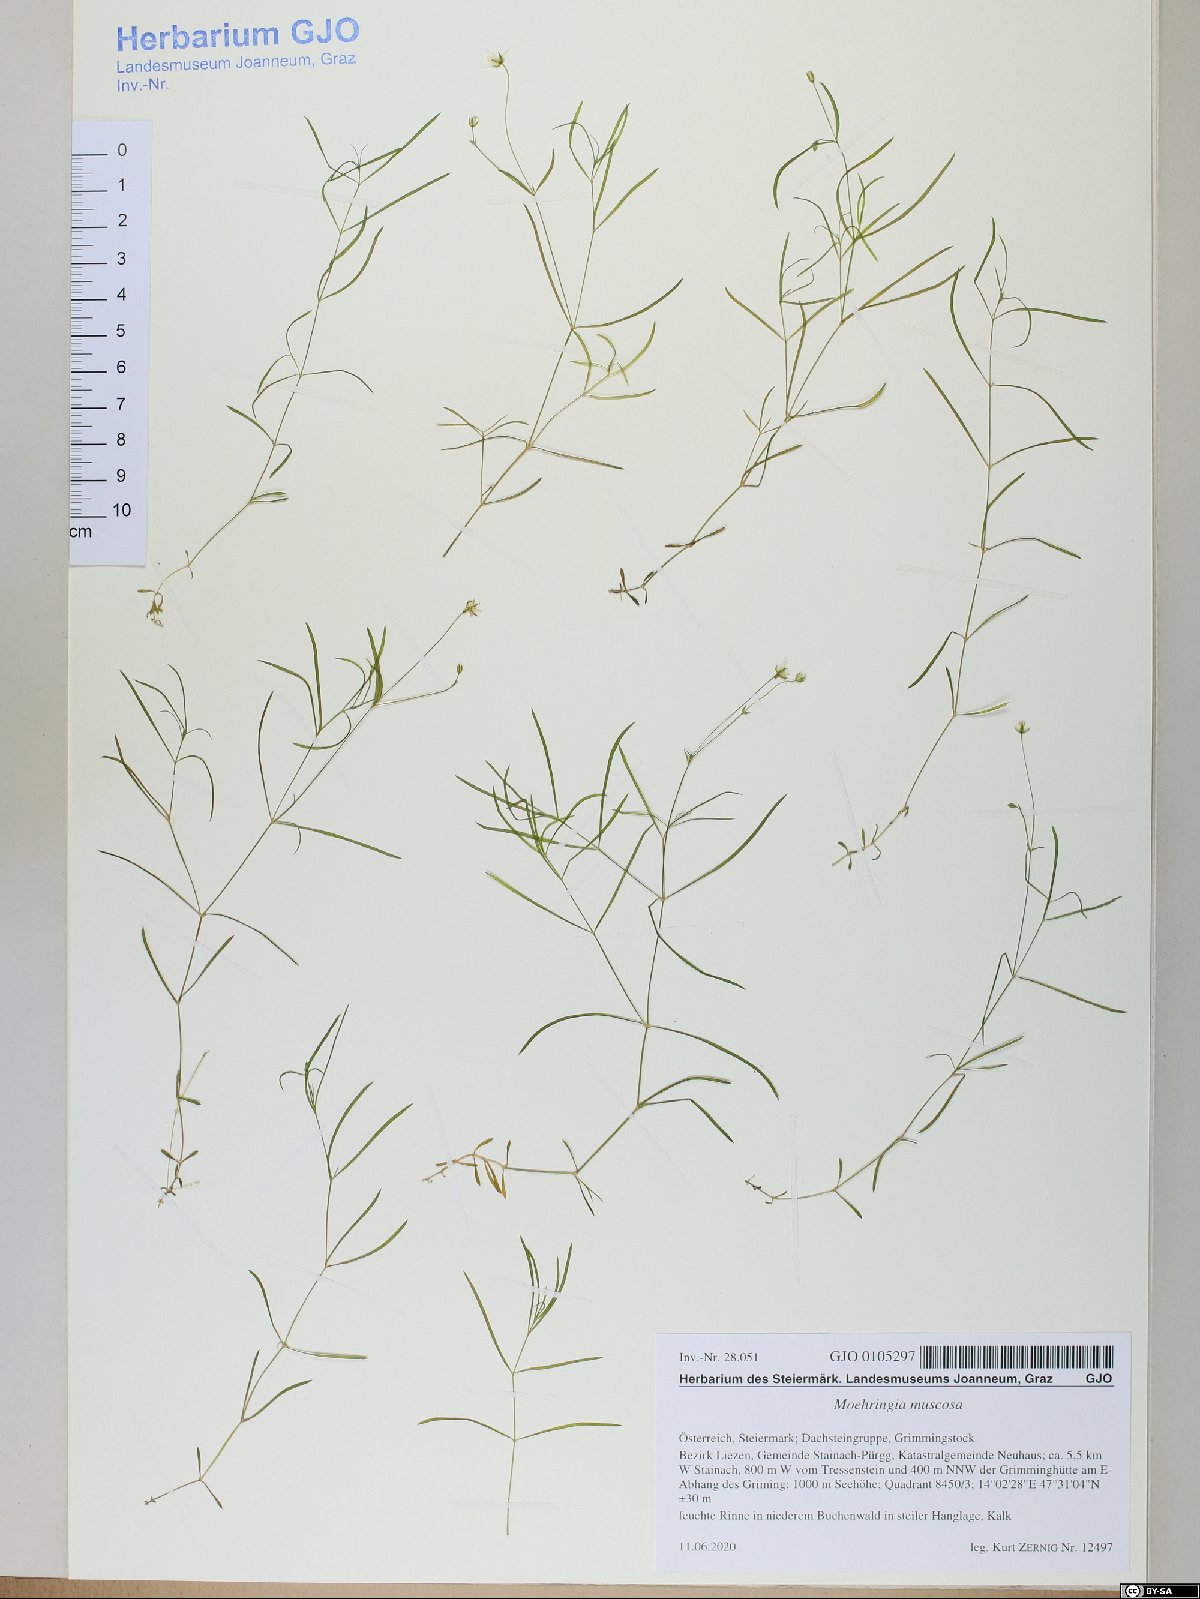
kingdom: Plantae
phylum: Tracheophyta
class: Magnoliopsida
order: Caryophyllales
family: Caryophyllaceae
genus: Moehringia
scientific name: Moehringia muscosa
